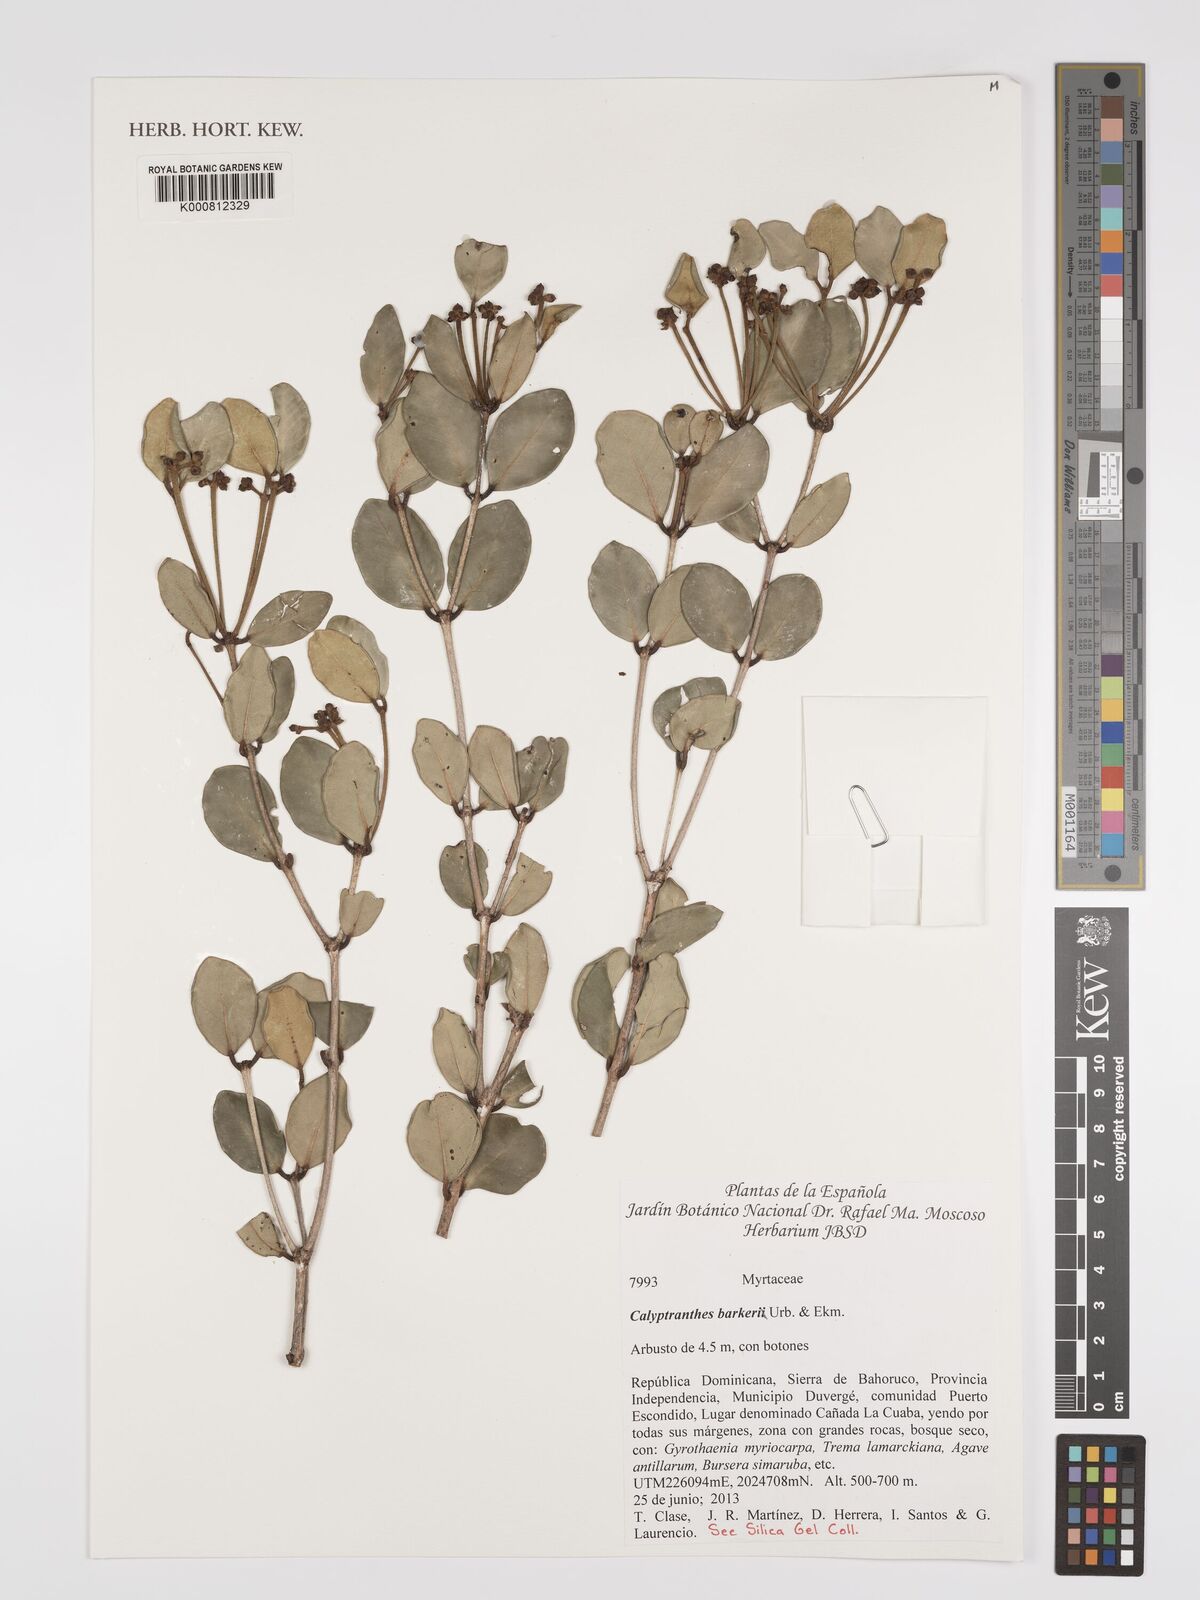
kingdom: Plantae
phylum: Tracheophyta
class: Magnoliopsida
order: Myrtales
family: Myrtaceae
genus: Myrcia
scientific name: Myrcia barkeri
